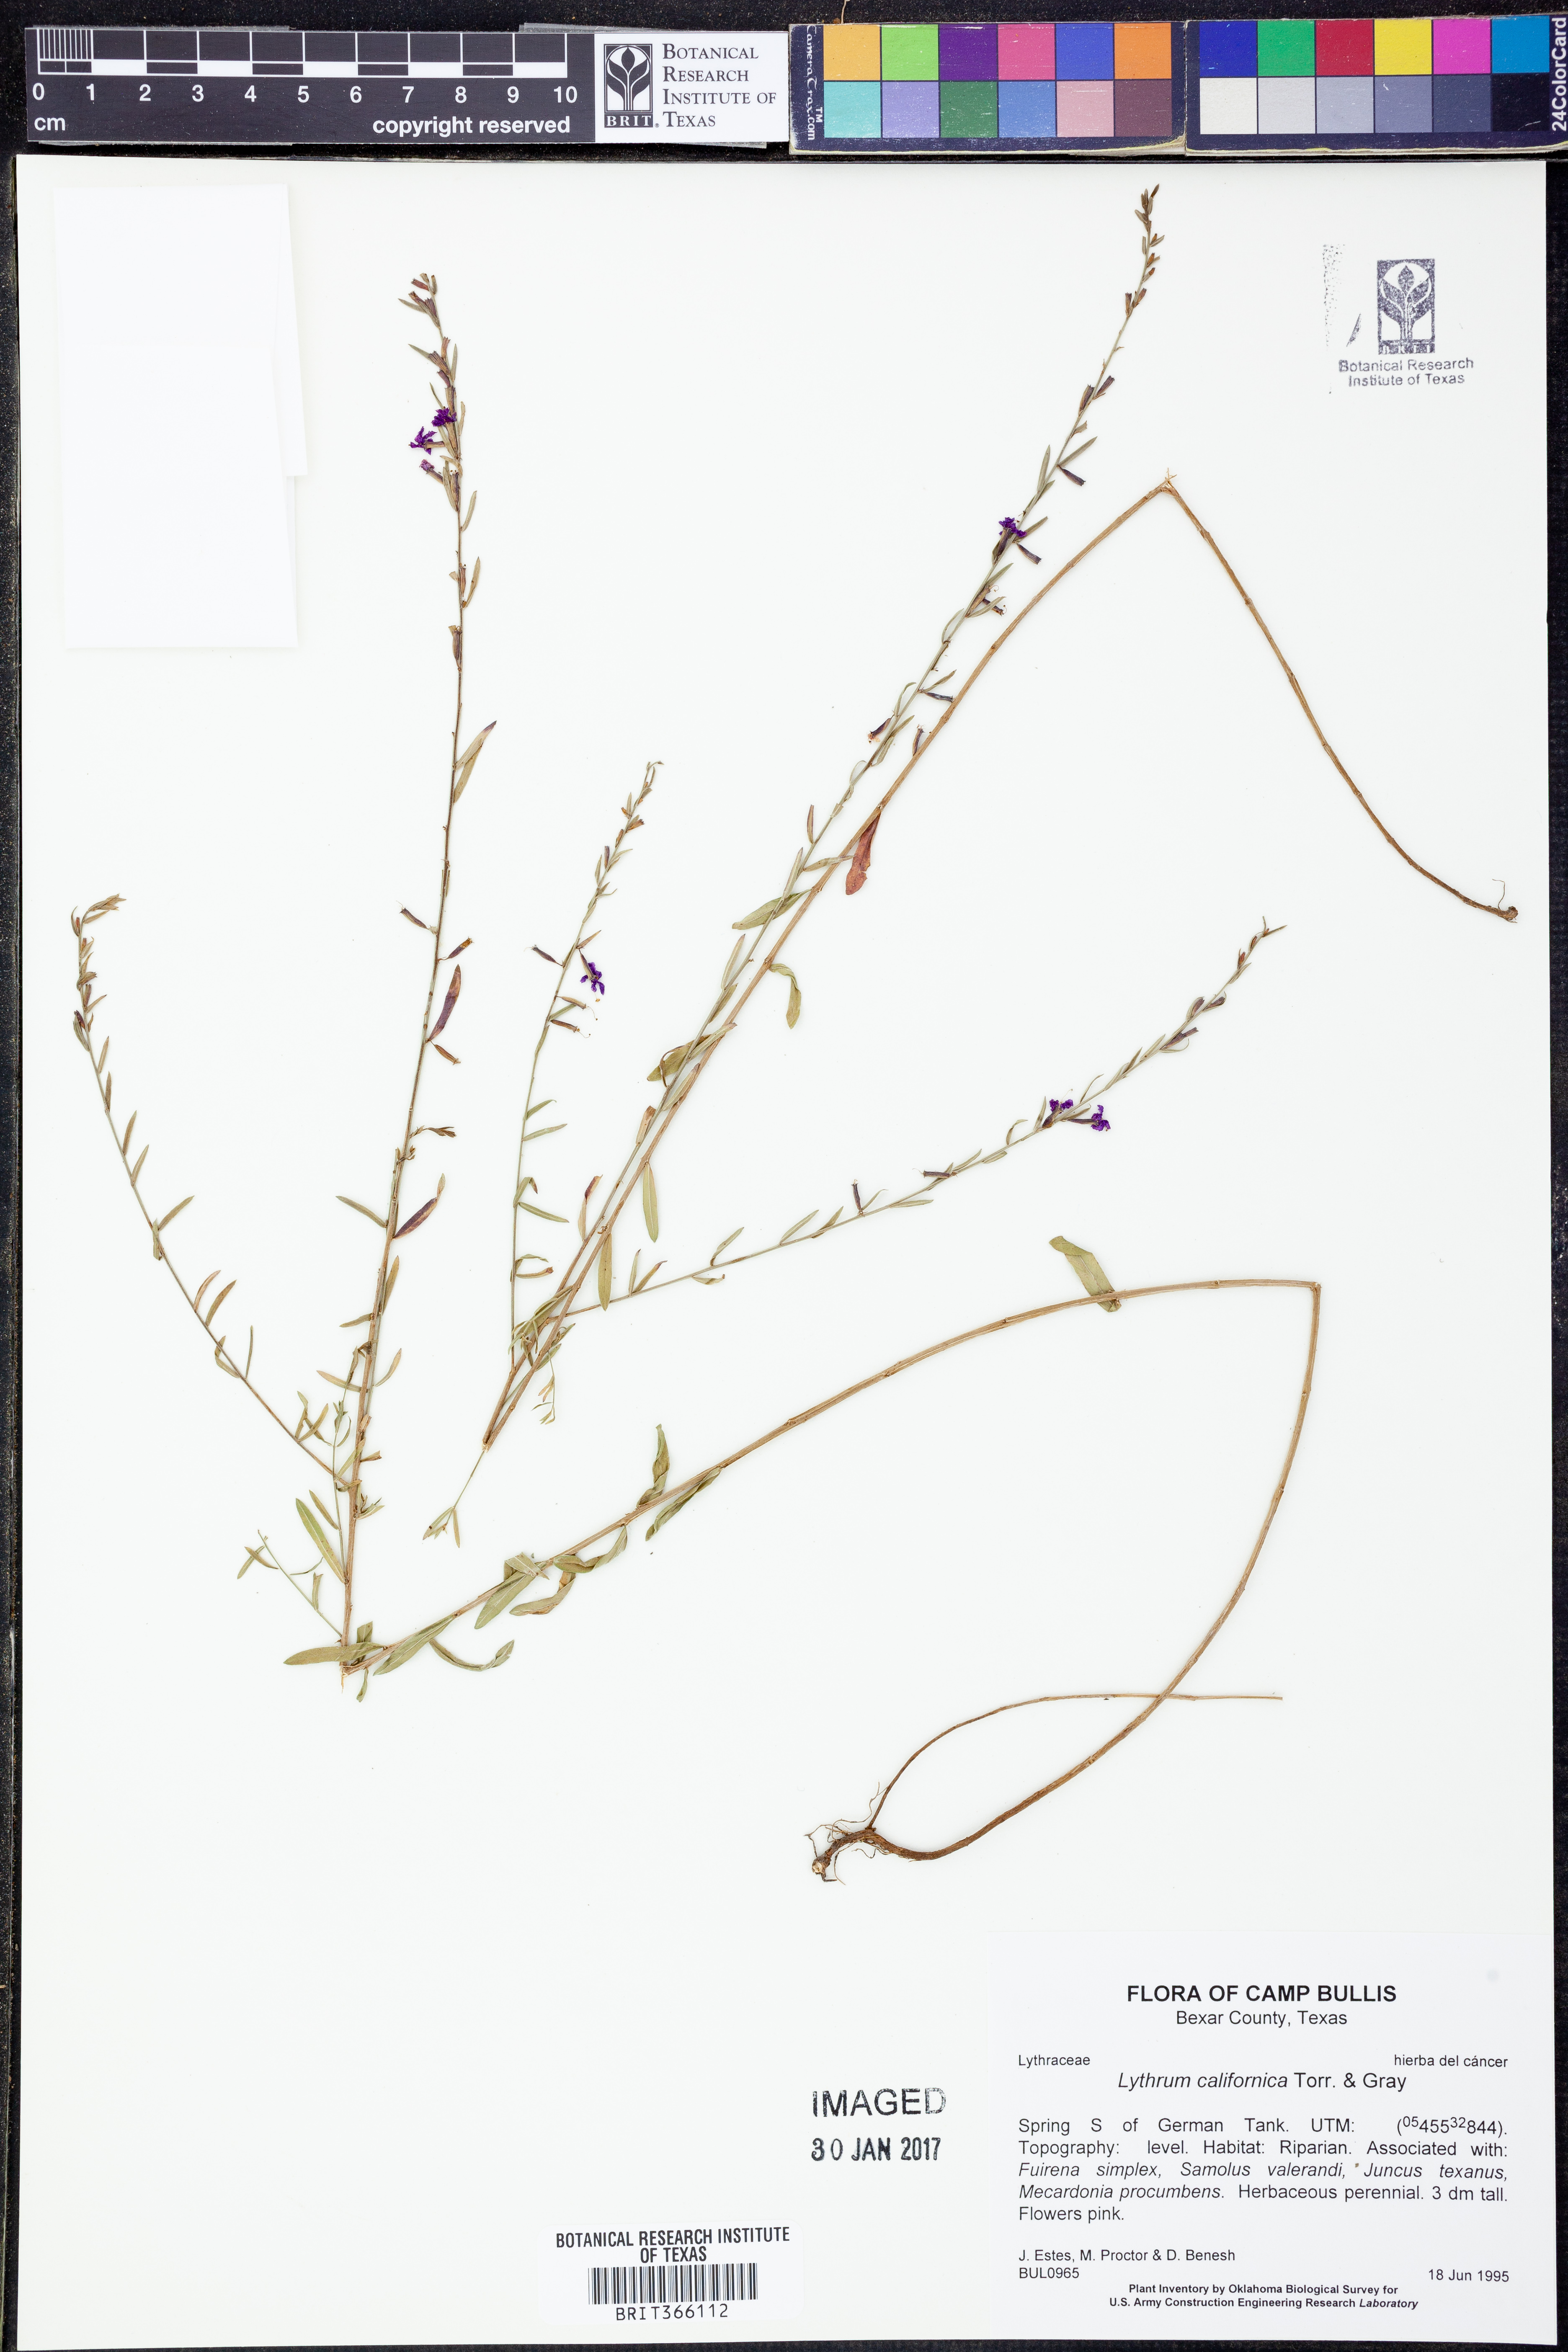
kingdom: Plantae
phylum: Tracheophyta
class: Magnoliopsida
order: Myrtales
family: Lythraceae
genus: Lythrum
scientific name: Lythrum californicum
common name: California loosestrife
